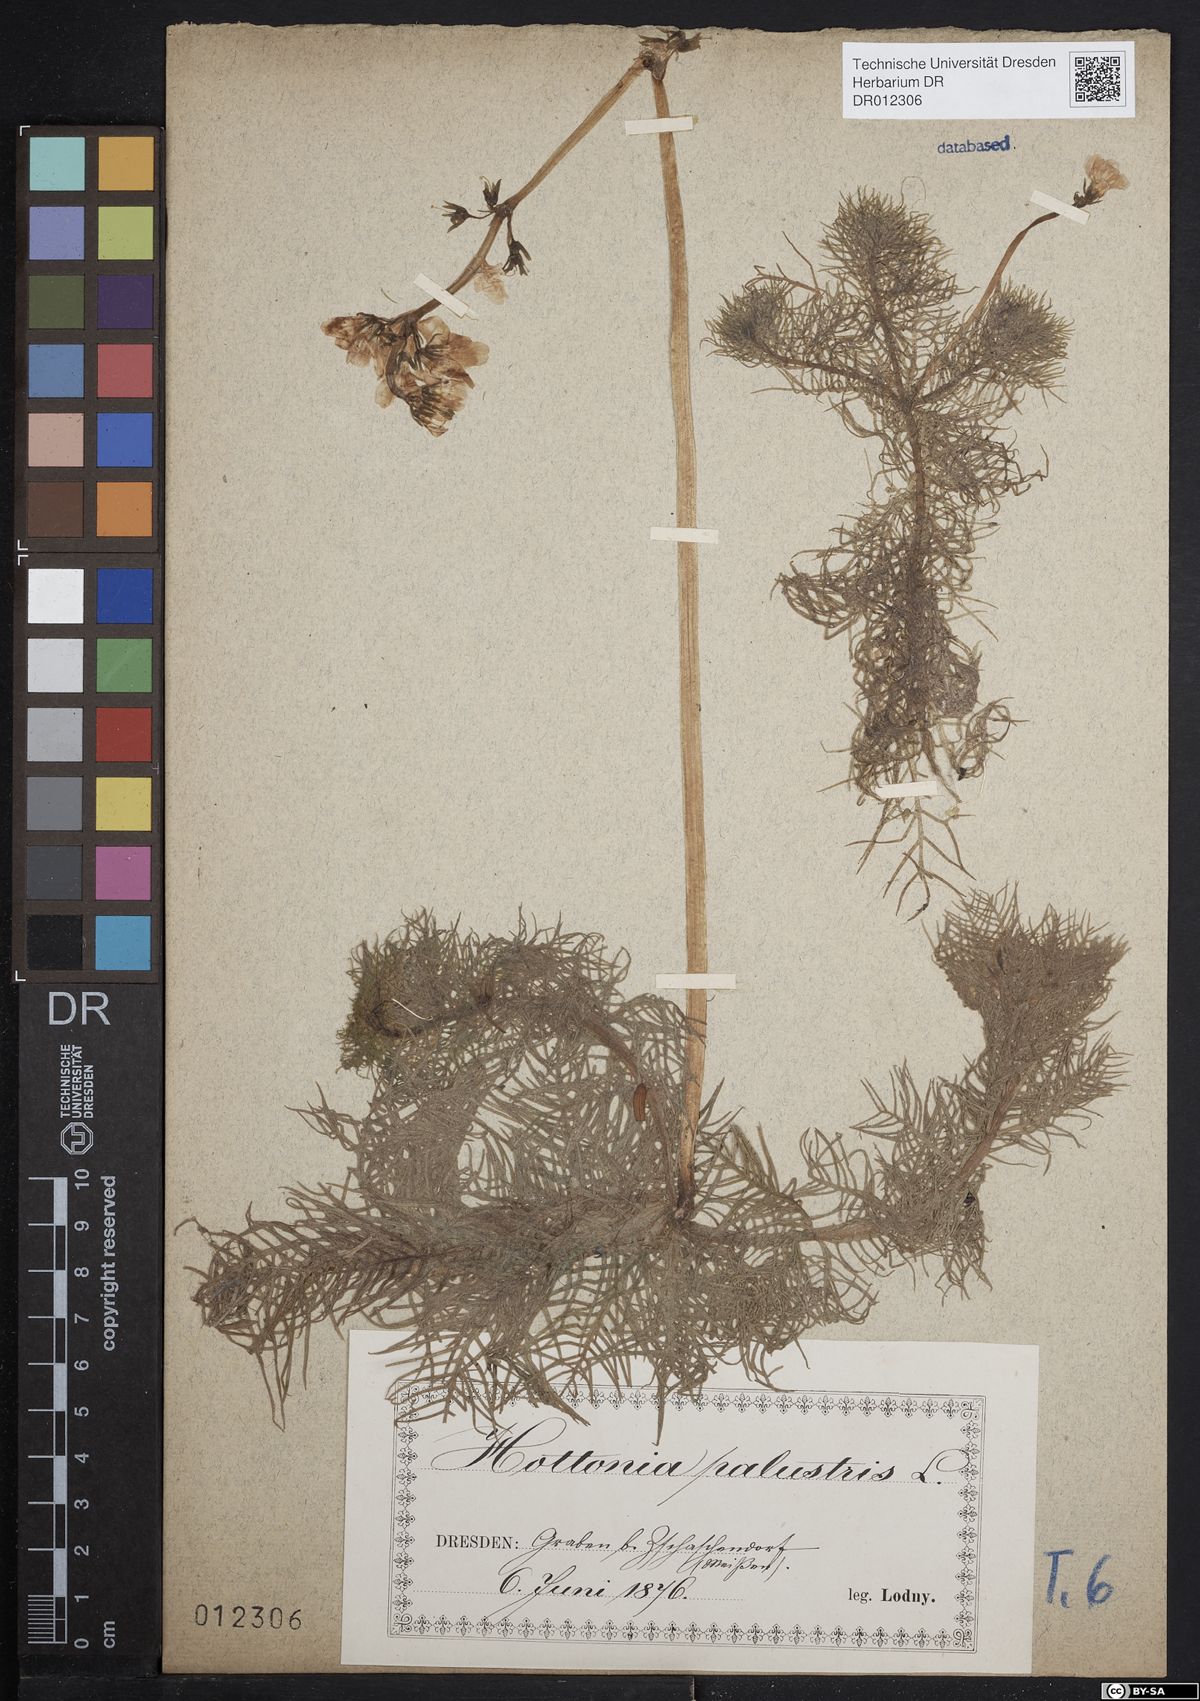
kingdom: Plantae
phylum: Tracheophyta
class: Magnoliopsida
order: Ericales
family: Primulaceae
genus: Hottonia
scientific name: Hottonia palustris
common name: Water-violet
